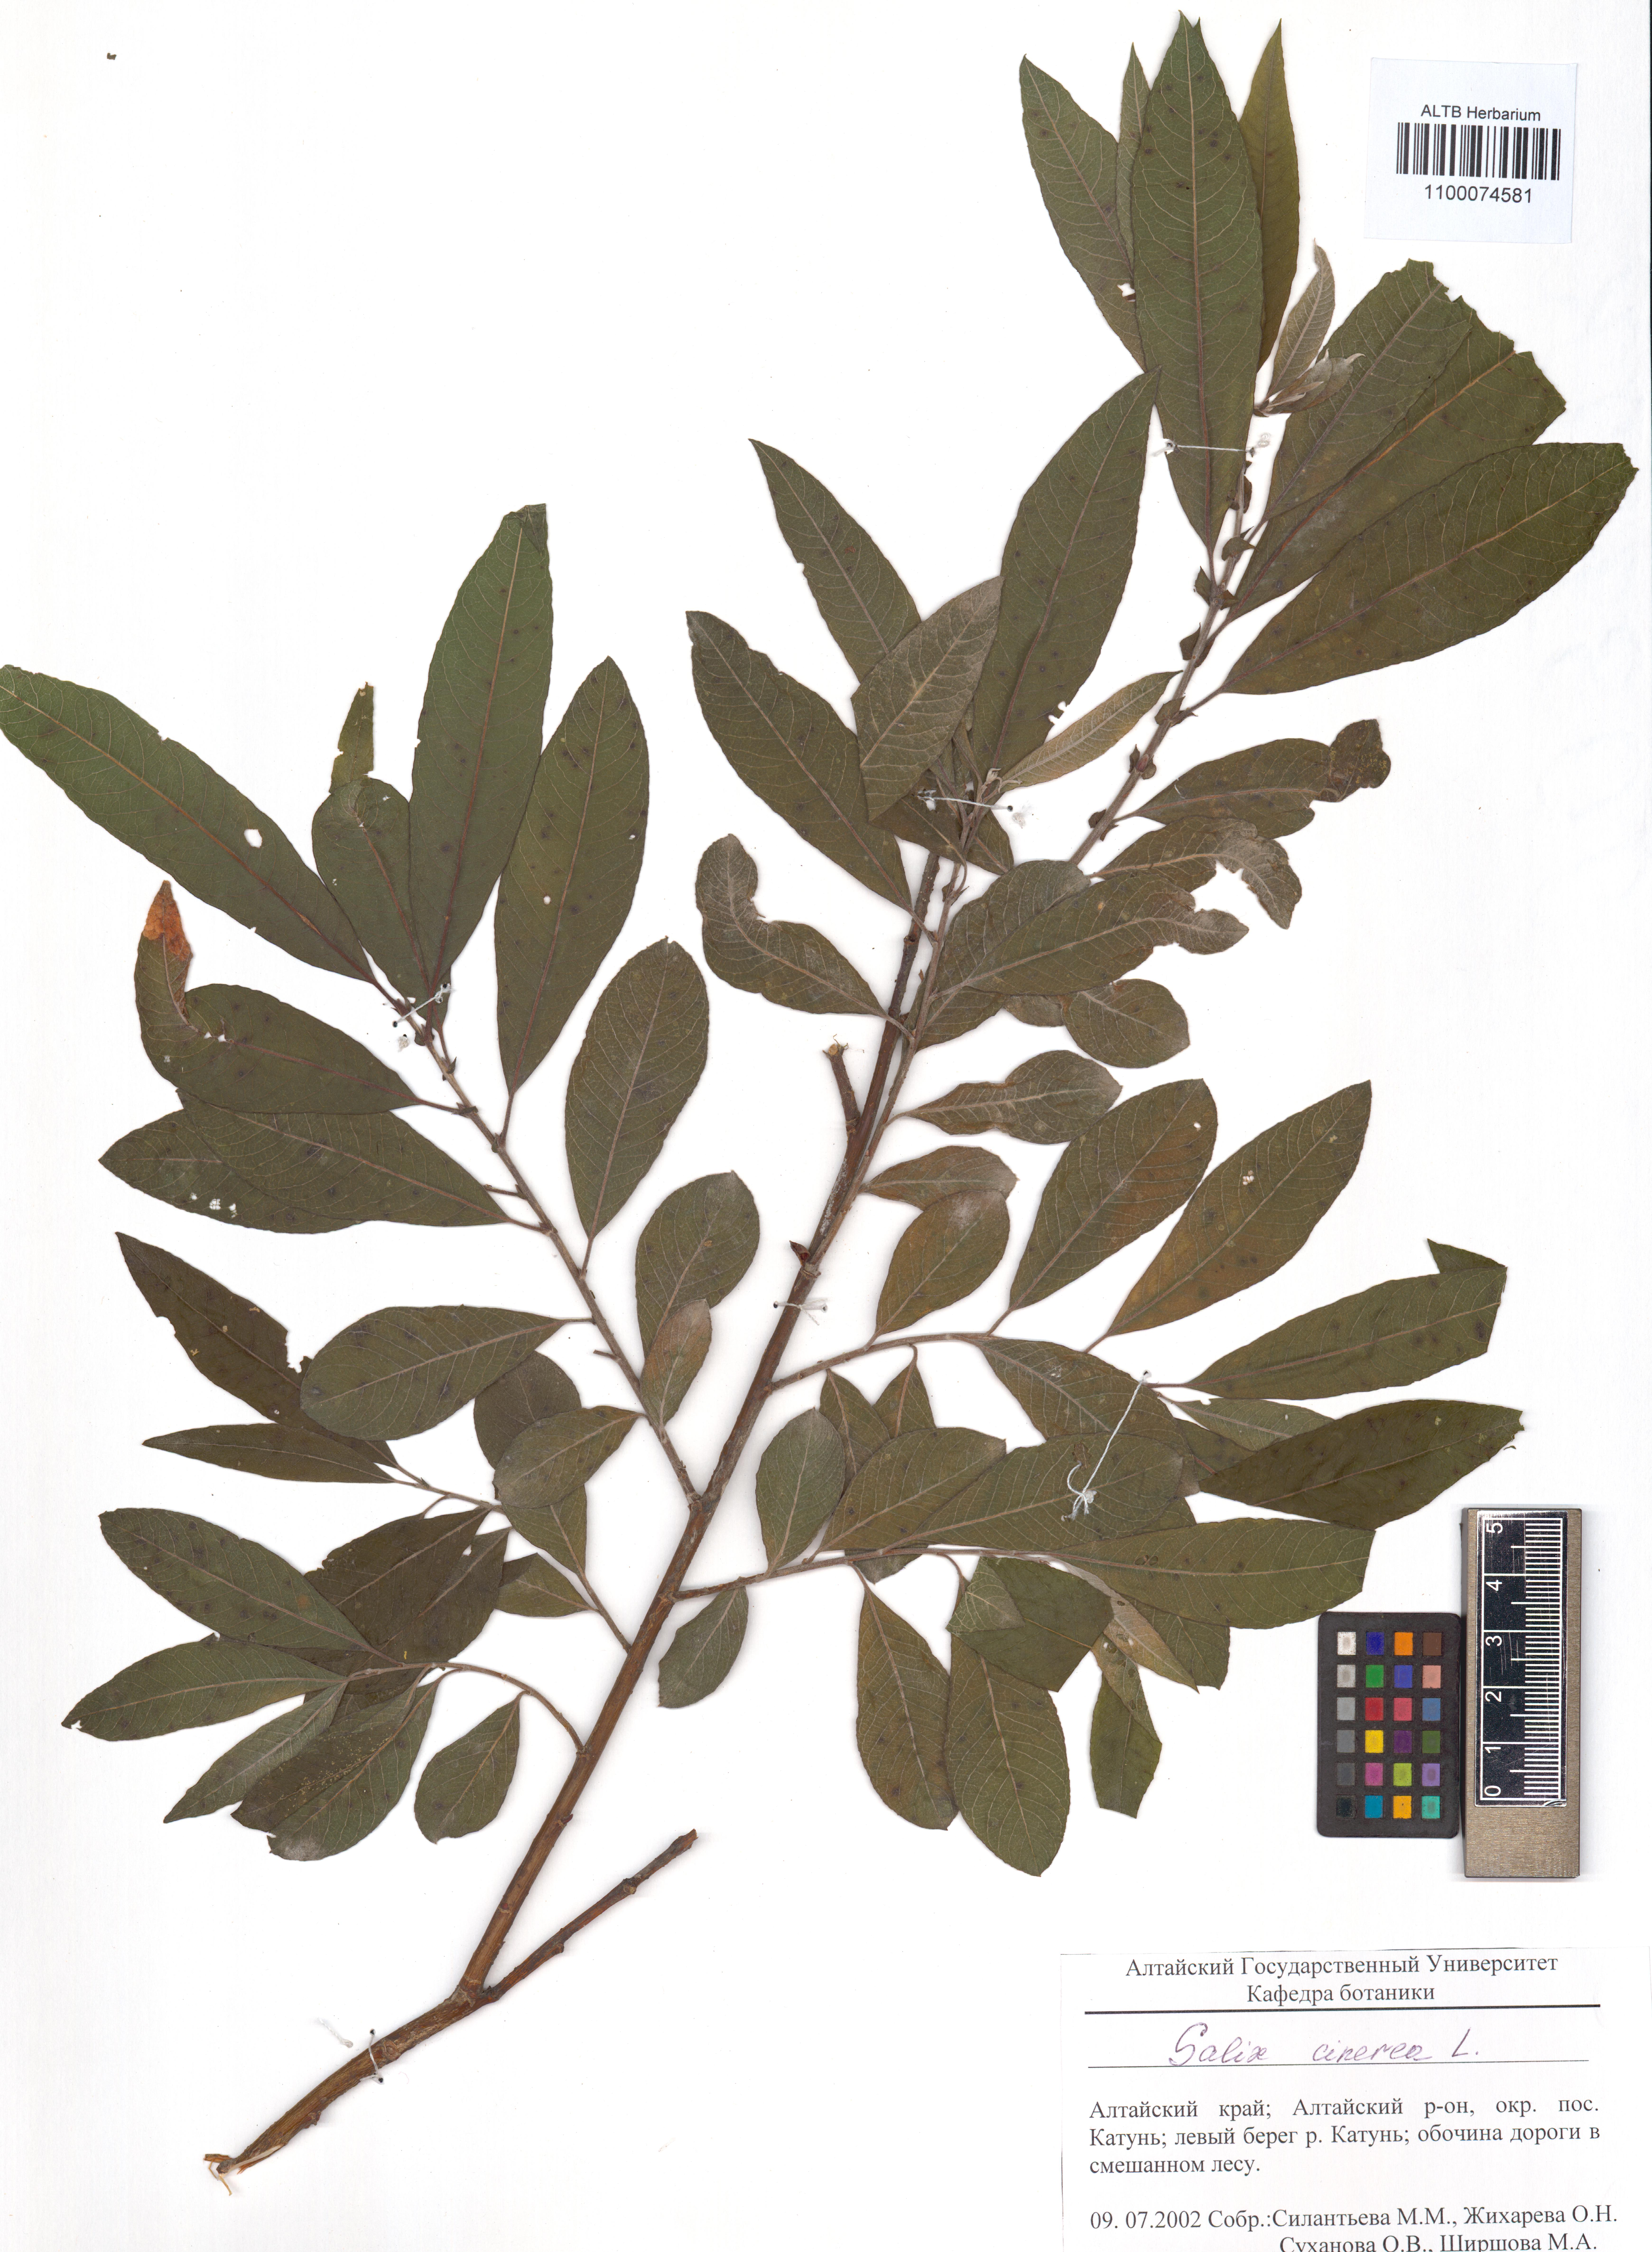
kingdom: Plantae
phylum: Tracheophyta
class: Magnoliopsida
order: Malpighiales
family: Salicaceae
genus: Salix
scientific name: Salix cinerea
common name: Common sallow
